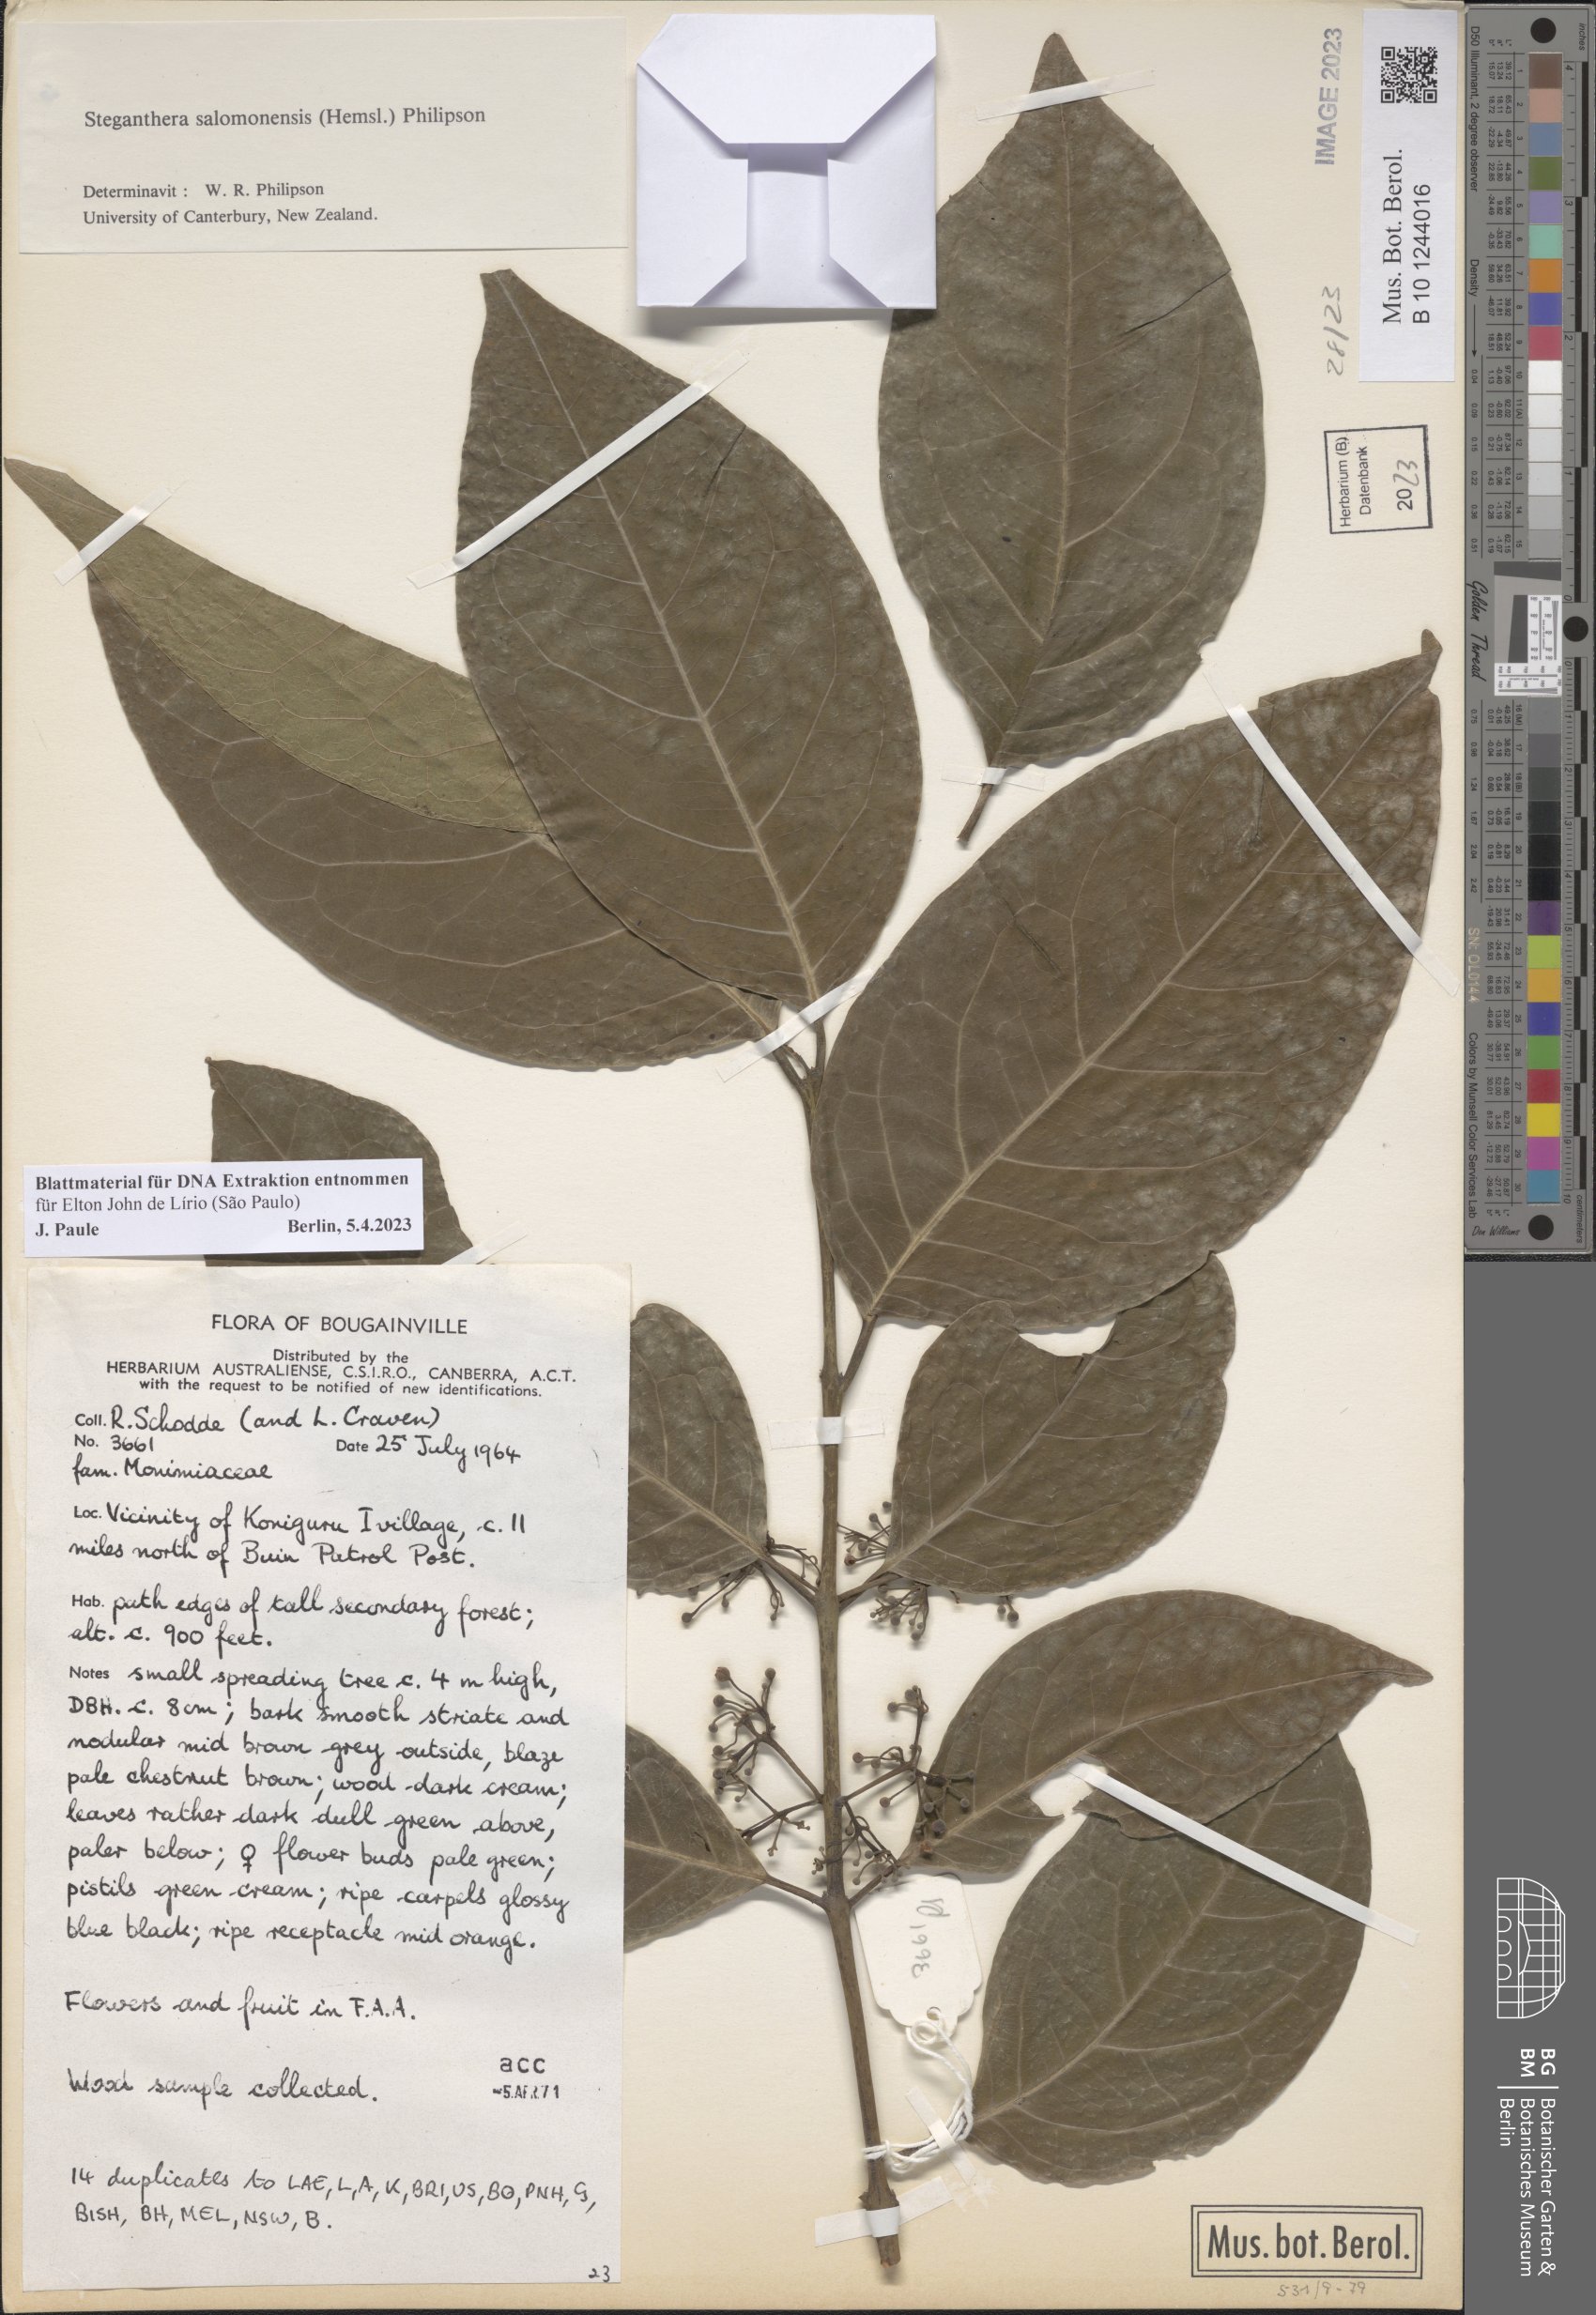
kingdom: Plantae
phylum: Tracheophyta
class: Magnoliopsida
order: Laurales
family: Monimiaceae
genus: Steganthera
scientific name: Steganthera salomonensis
